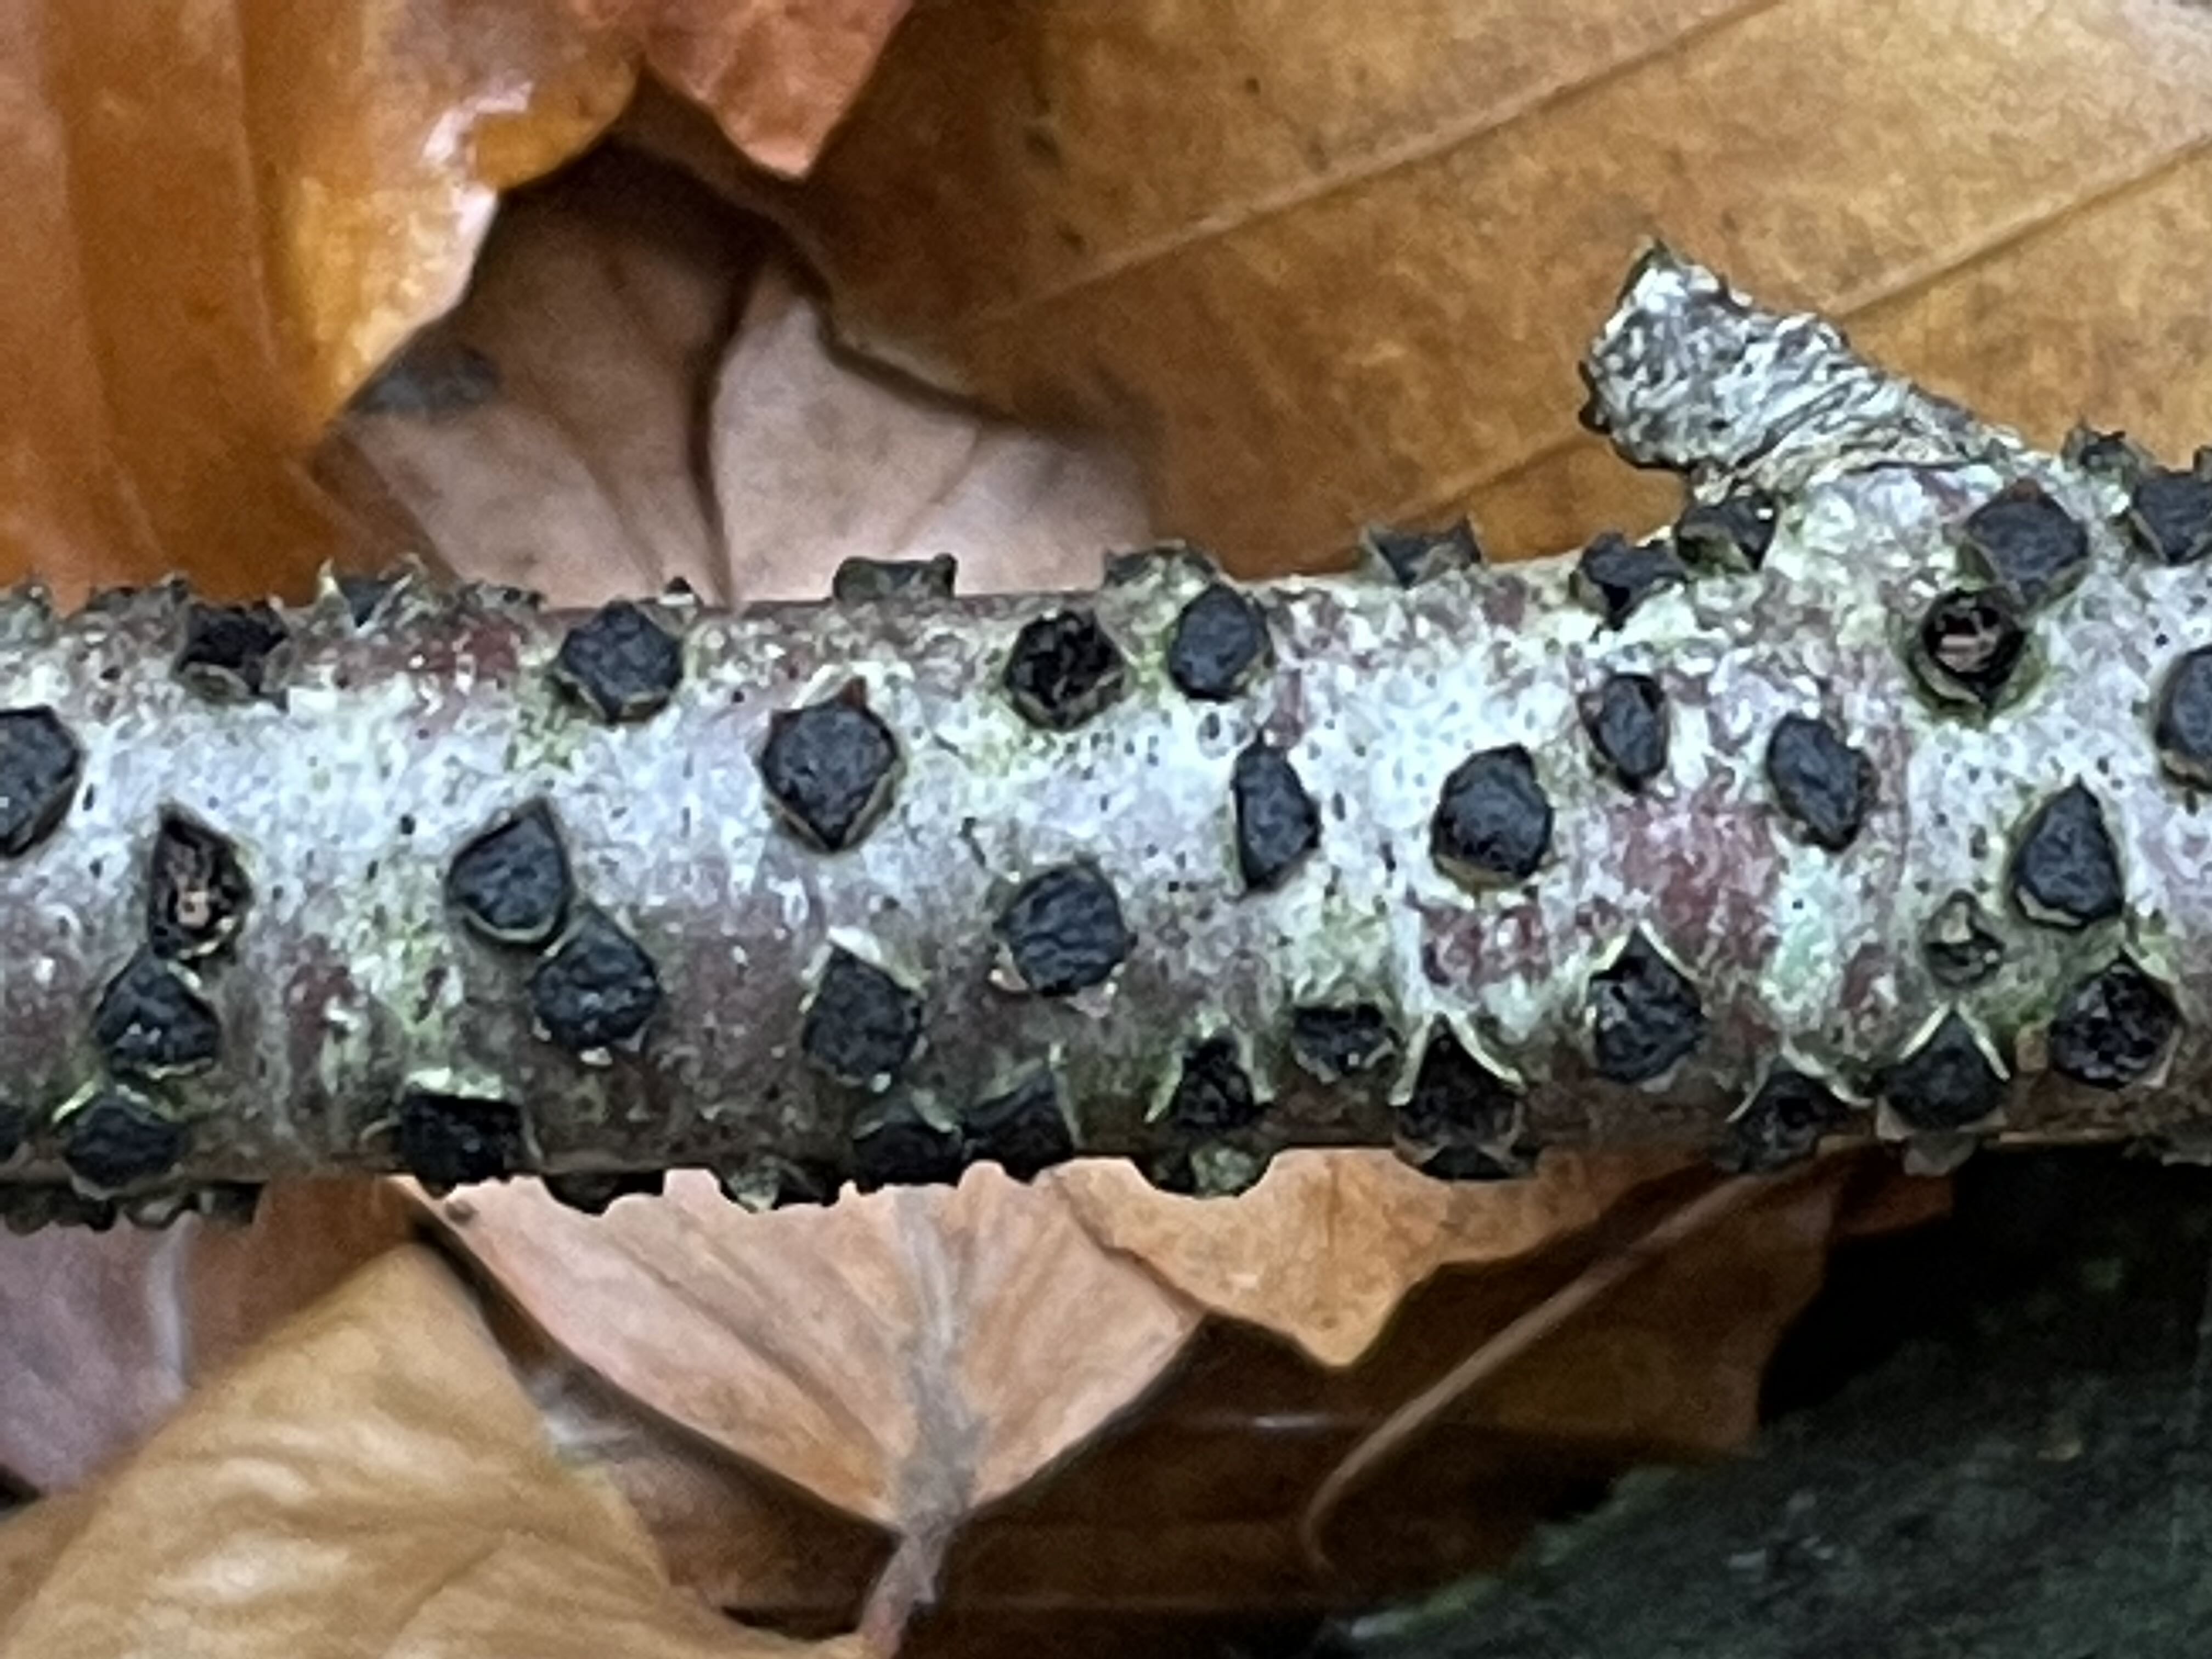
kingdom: Fungi
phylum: Ascomycota
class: Sordariomycetes
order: Xylariales
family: Diatrypaceae
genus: Diatrype
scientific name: Diatrype disciformis
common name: kant-kulskorpe
